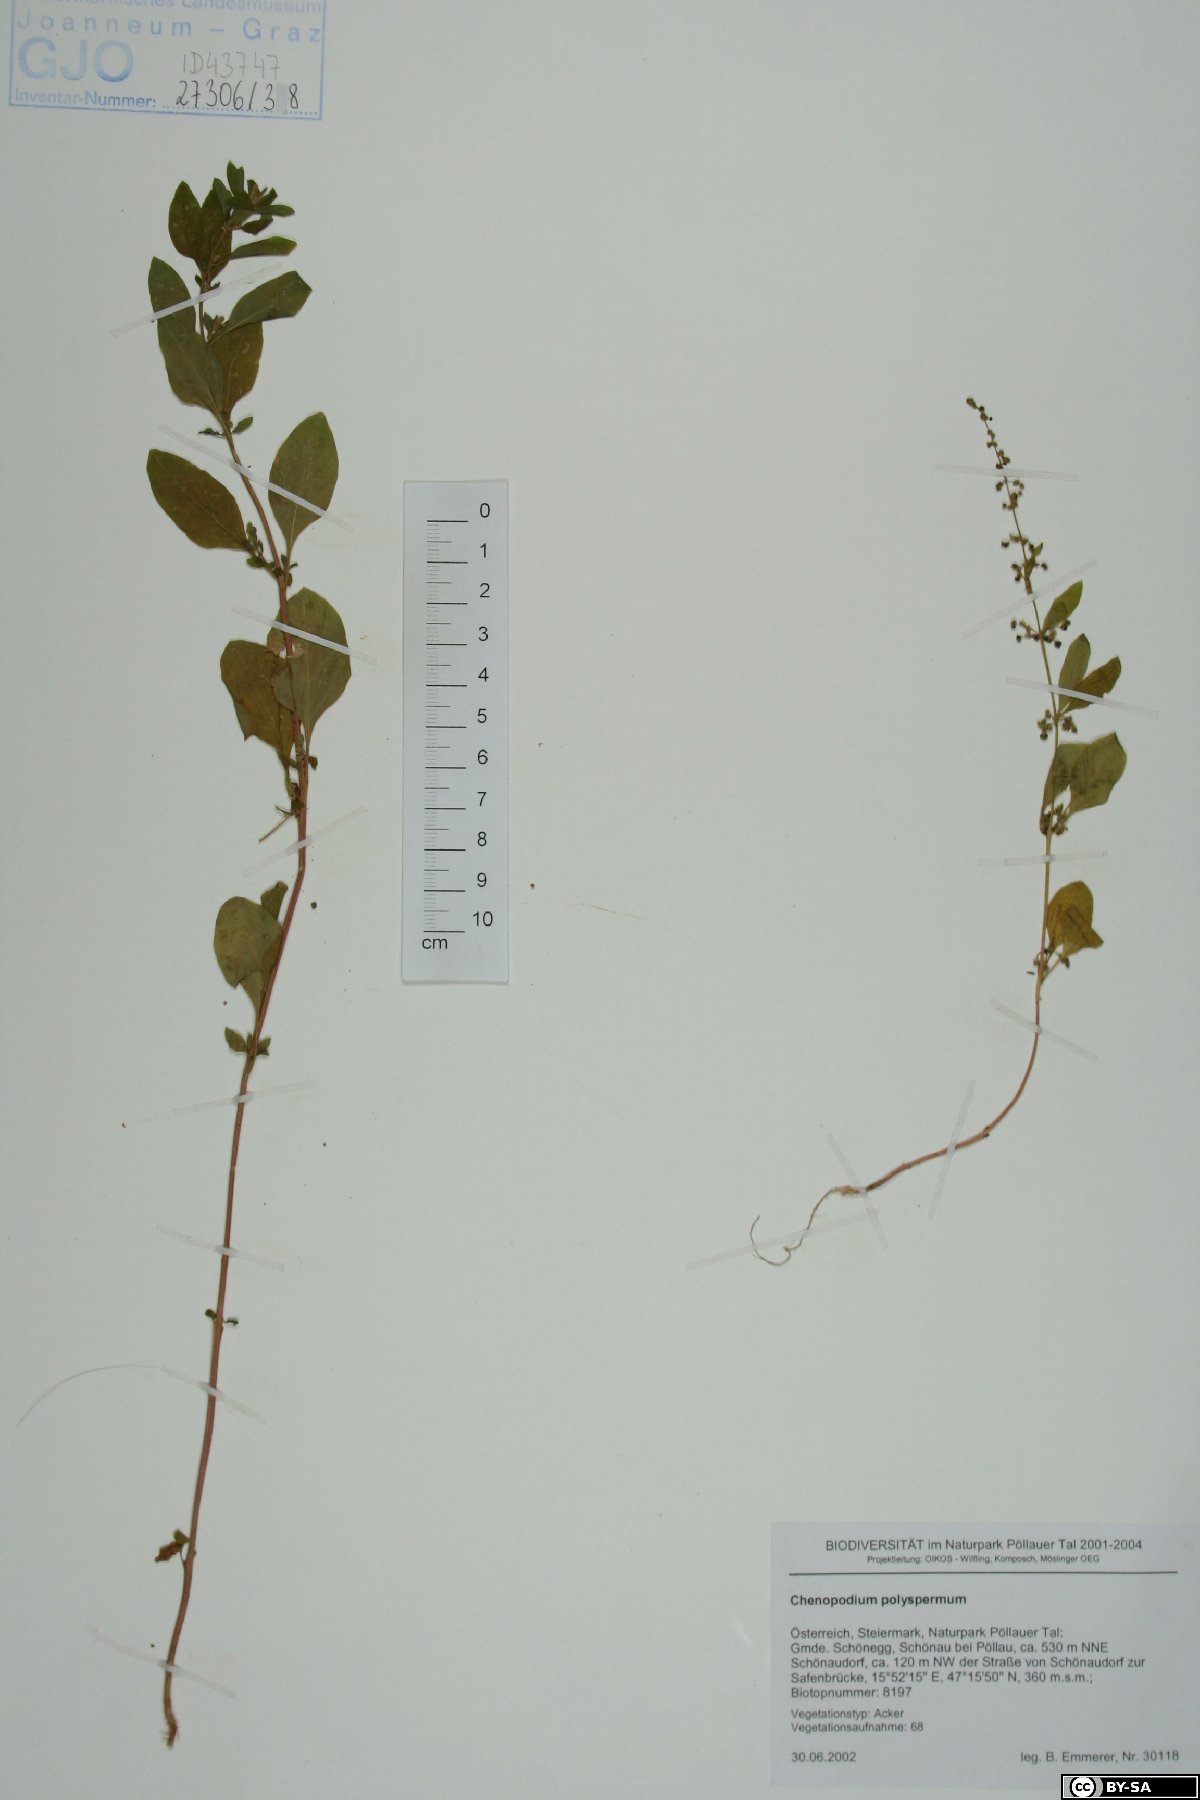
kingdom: Plantae
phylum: Tracheophyta
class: Magnoliopsida
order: Caryophyllales
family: Amaranthaceae
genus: Lipandra
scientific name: Lipandra polysperma
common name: Many-seed goosefoot
